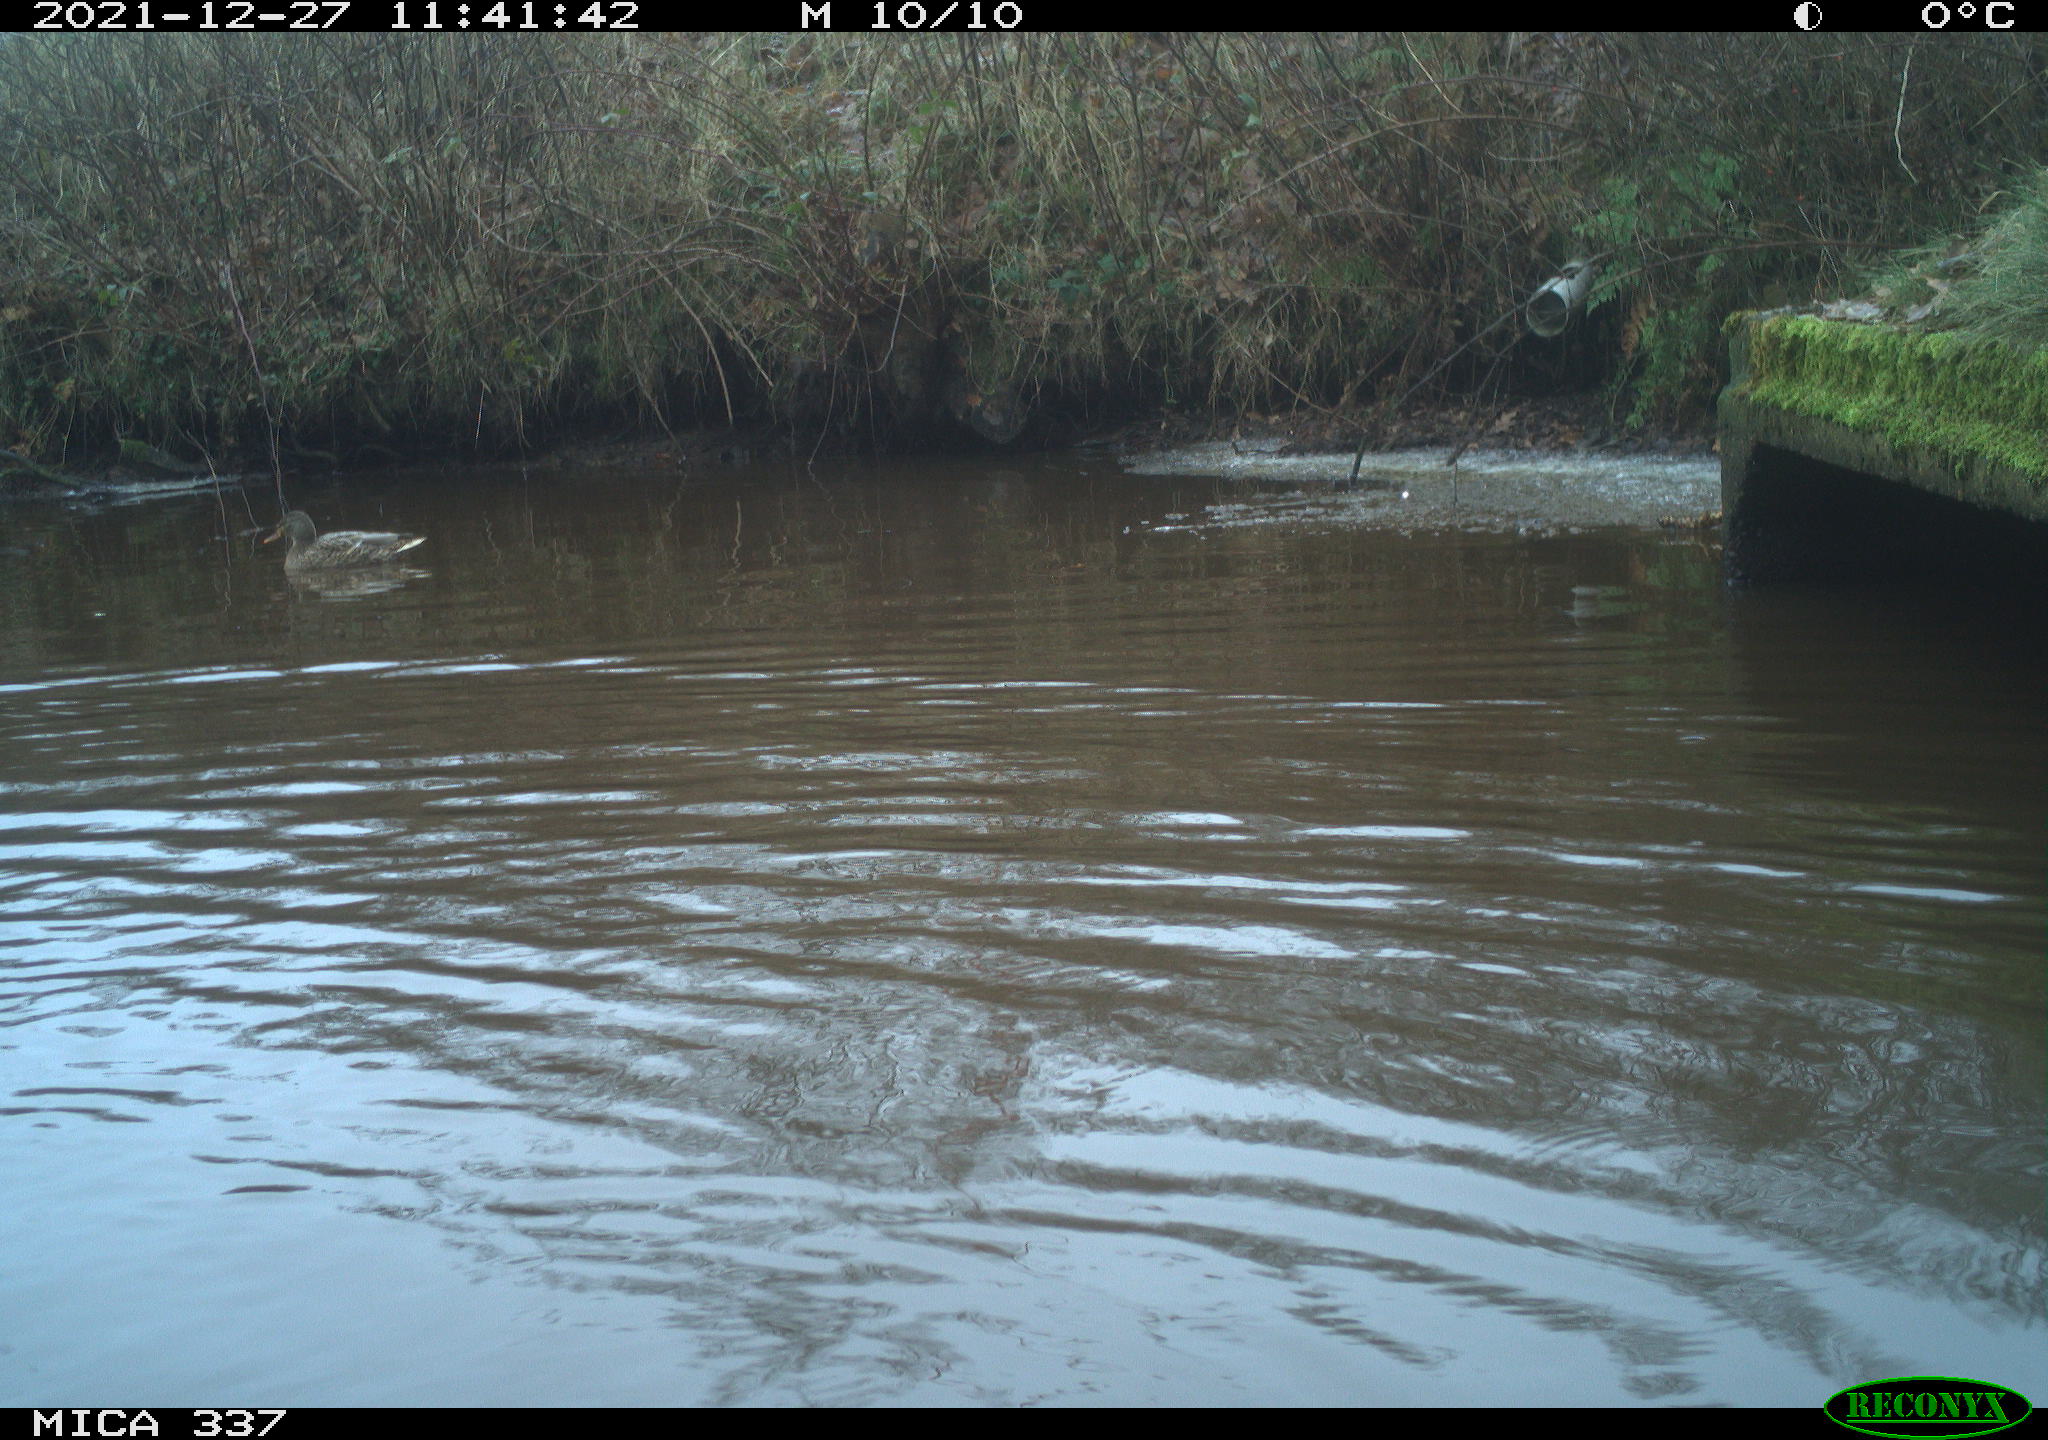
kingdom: Animalia
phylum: Chordata
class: Aves
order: Anseriformes
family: Anatidae
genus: Anas
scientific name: Anas platyrhynchos
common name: Mallard
